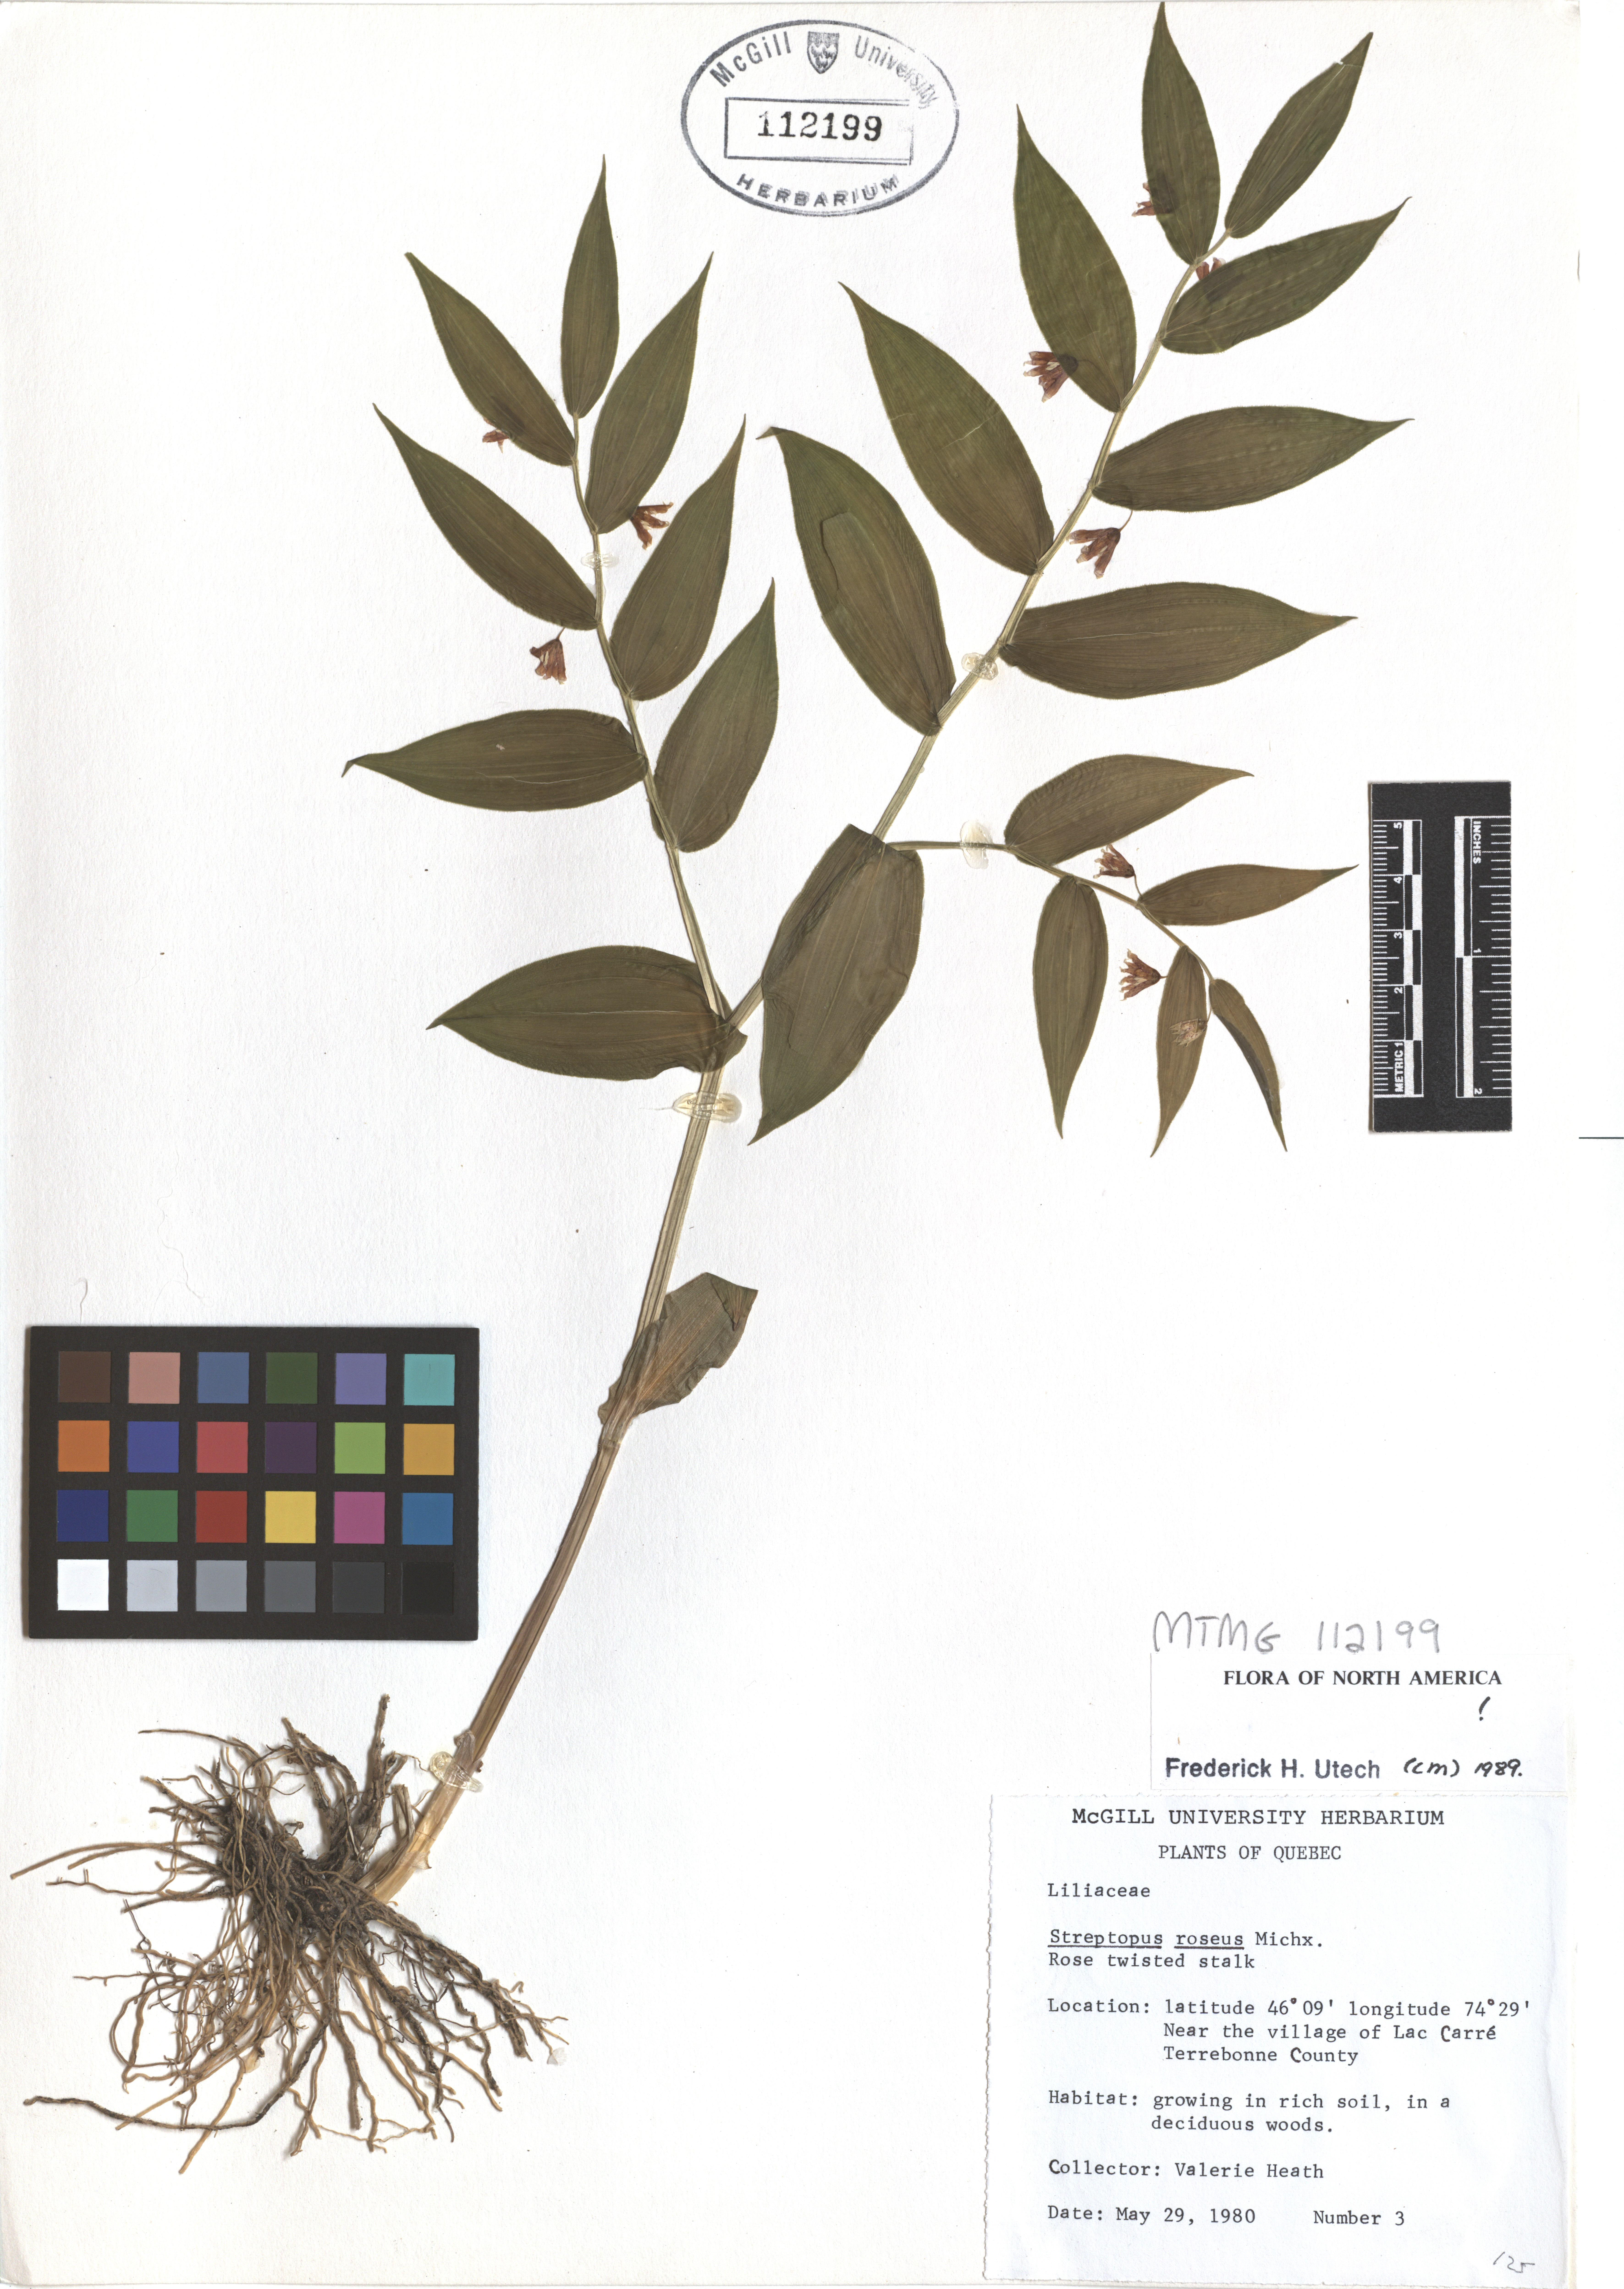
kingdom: Plantae
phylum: Tracheophyta
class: Liliopsida
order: Liliales
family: Liliaceae
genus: Streptopus
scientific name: Streptopus lanceolatus
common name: Rose mandarin
